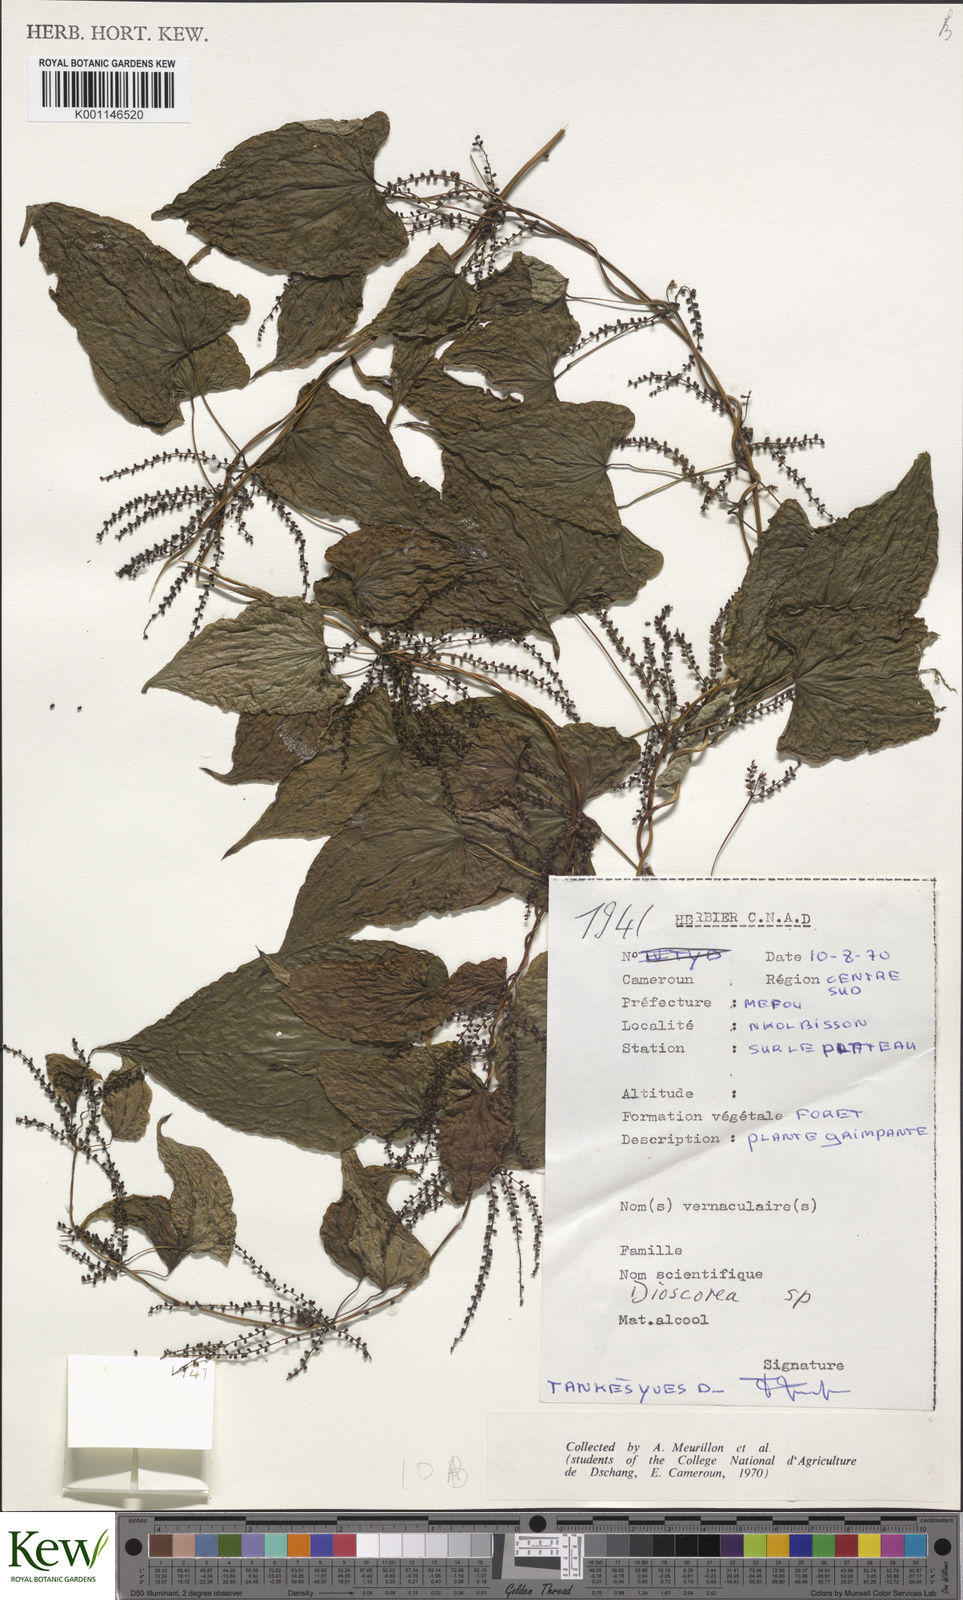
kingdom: Plantae
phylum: Tracheophyta
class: Liliopsida
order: Dioscoreales
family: Dioscoreaceae
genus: Dioscorea
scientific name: Dioscorea
